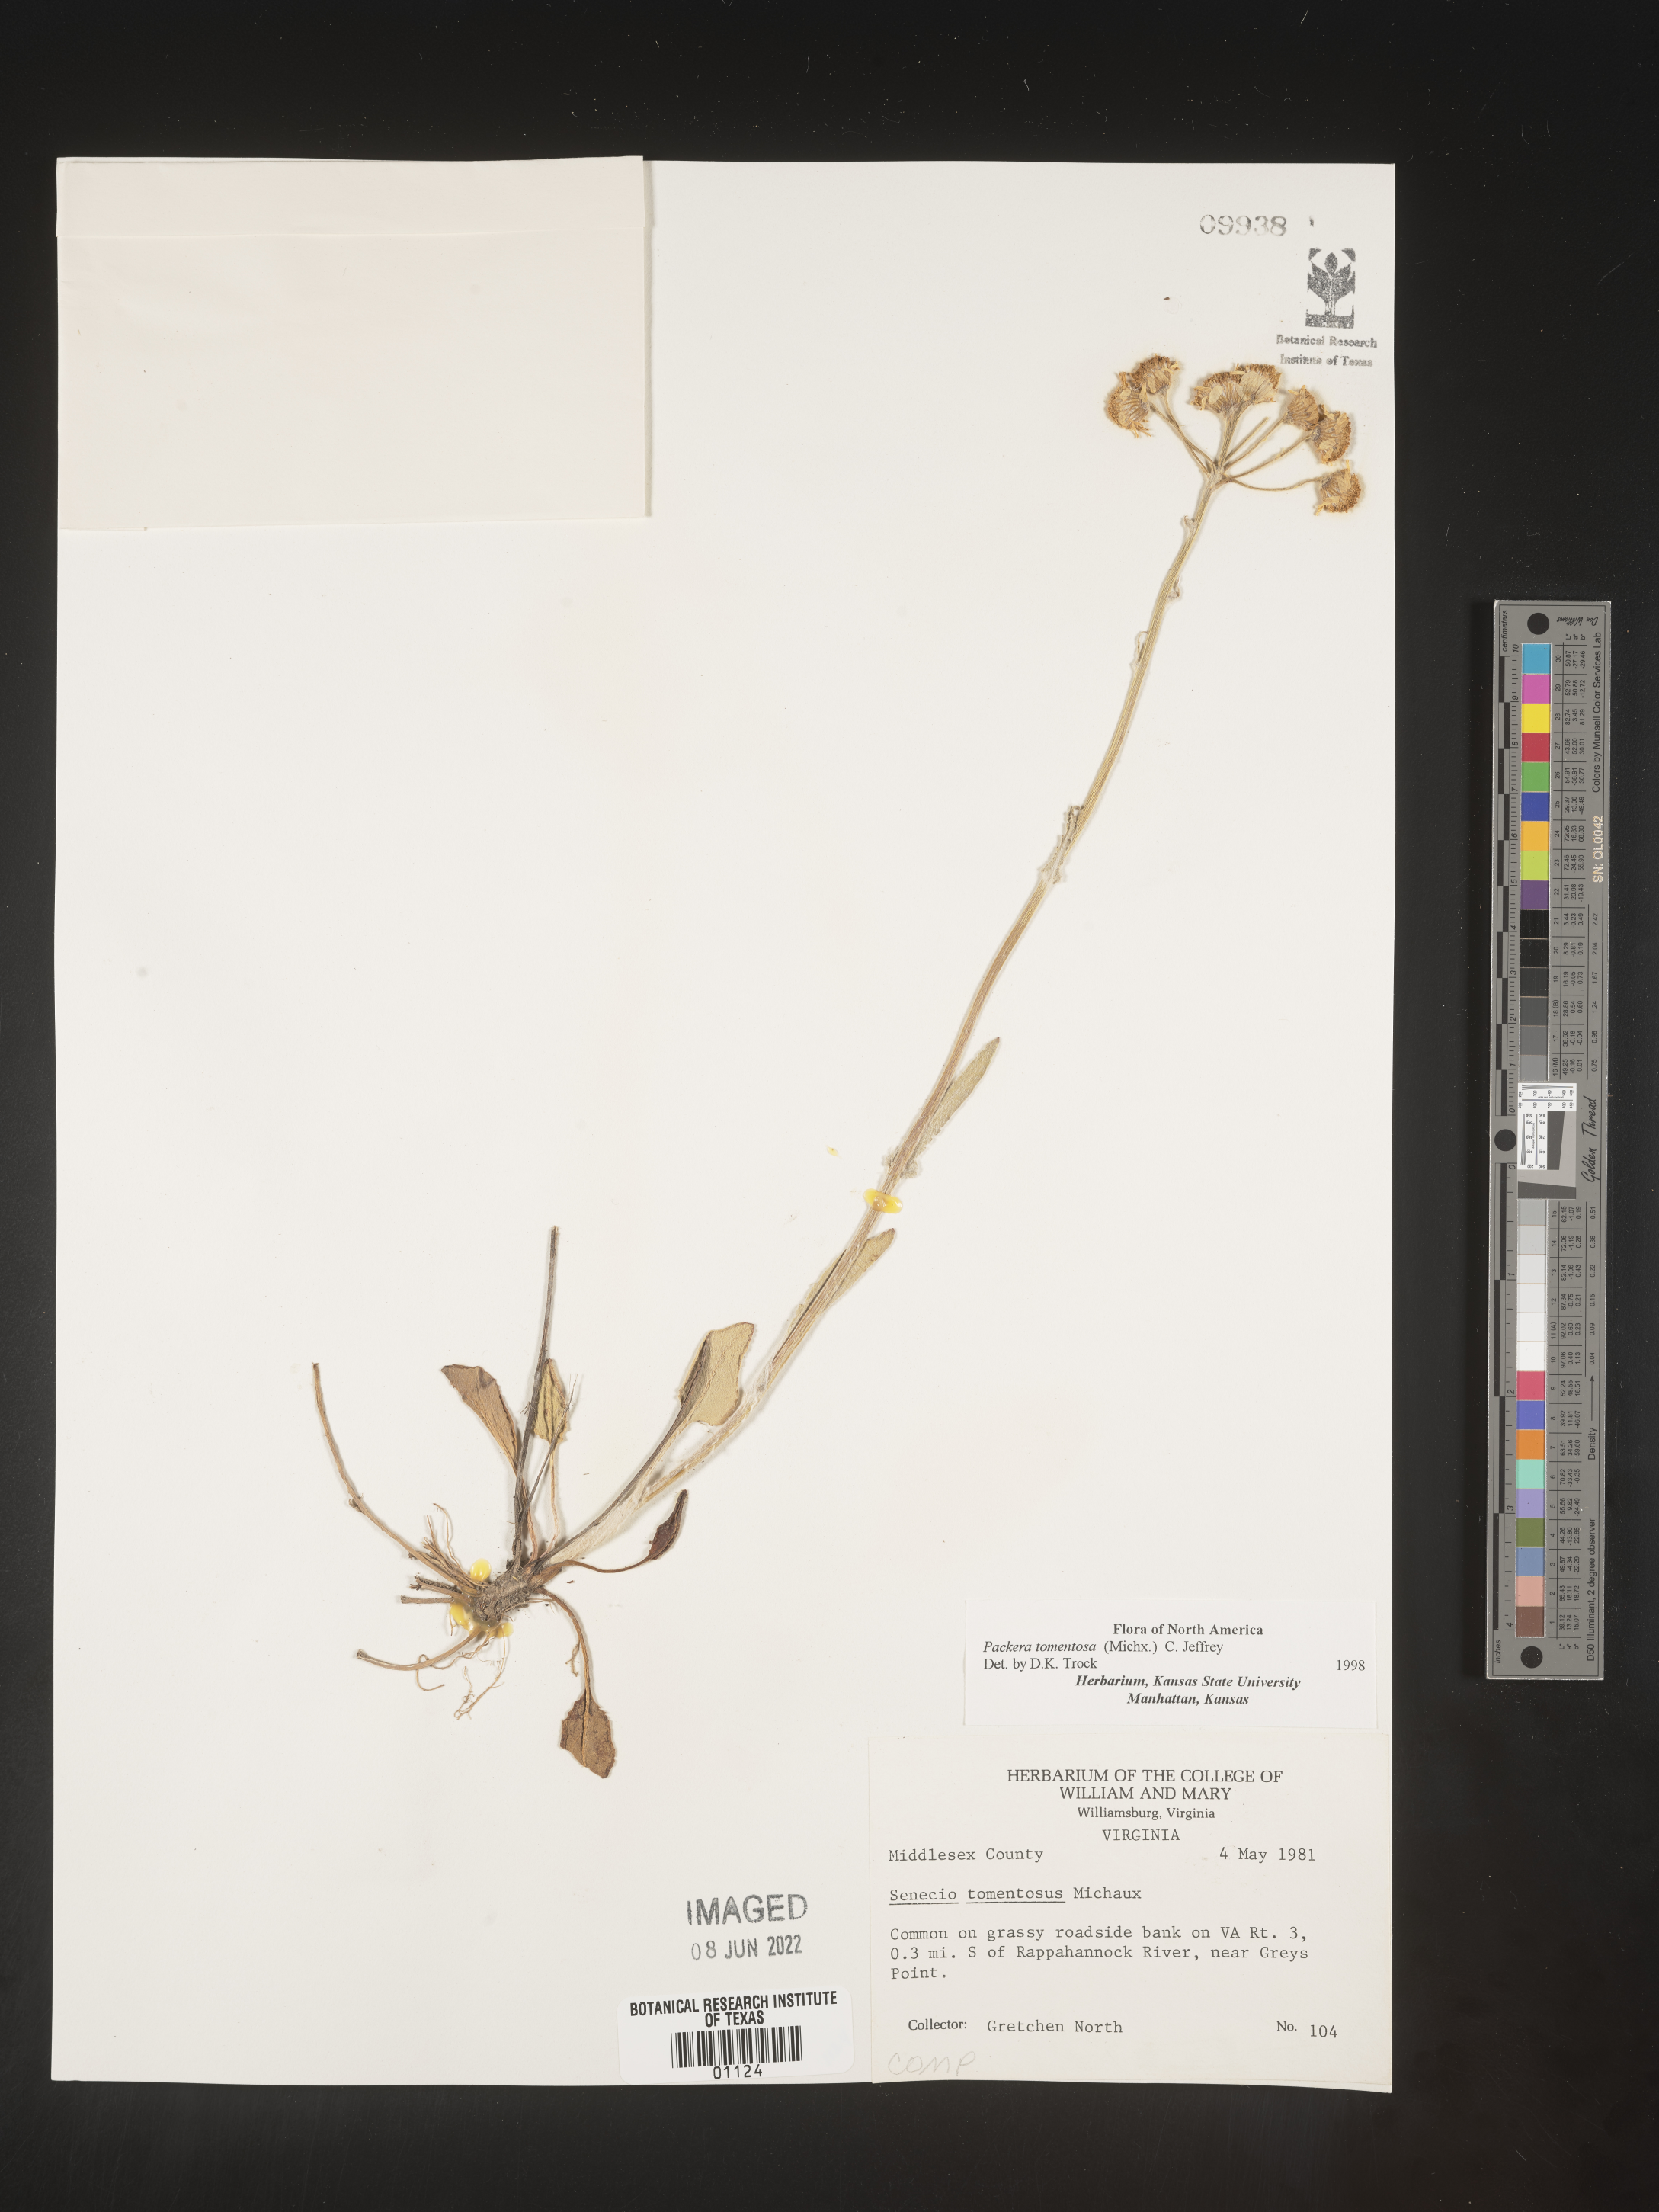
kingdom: Plantae
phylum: Tracheophyta
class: Magnoliopsida
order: Asterales
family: Asteraceae
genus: Packera
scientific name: Packera dubia
